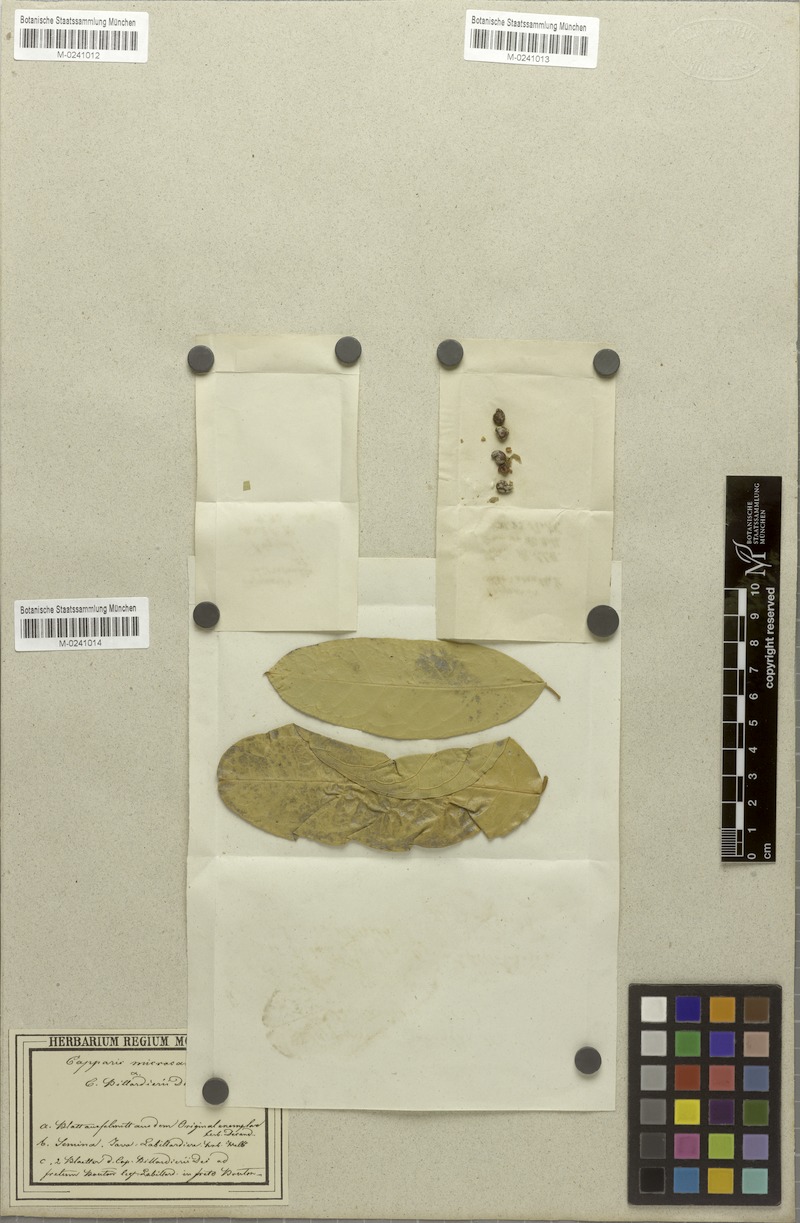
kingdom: Plantae
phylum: Tracheophyta
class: Magnoliopsida
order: Brassicales
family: Capparaceae
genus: Capparis
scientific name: Capparis micracantha
